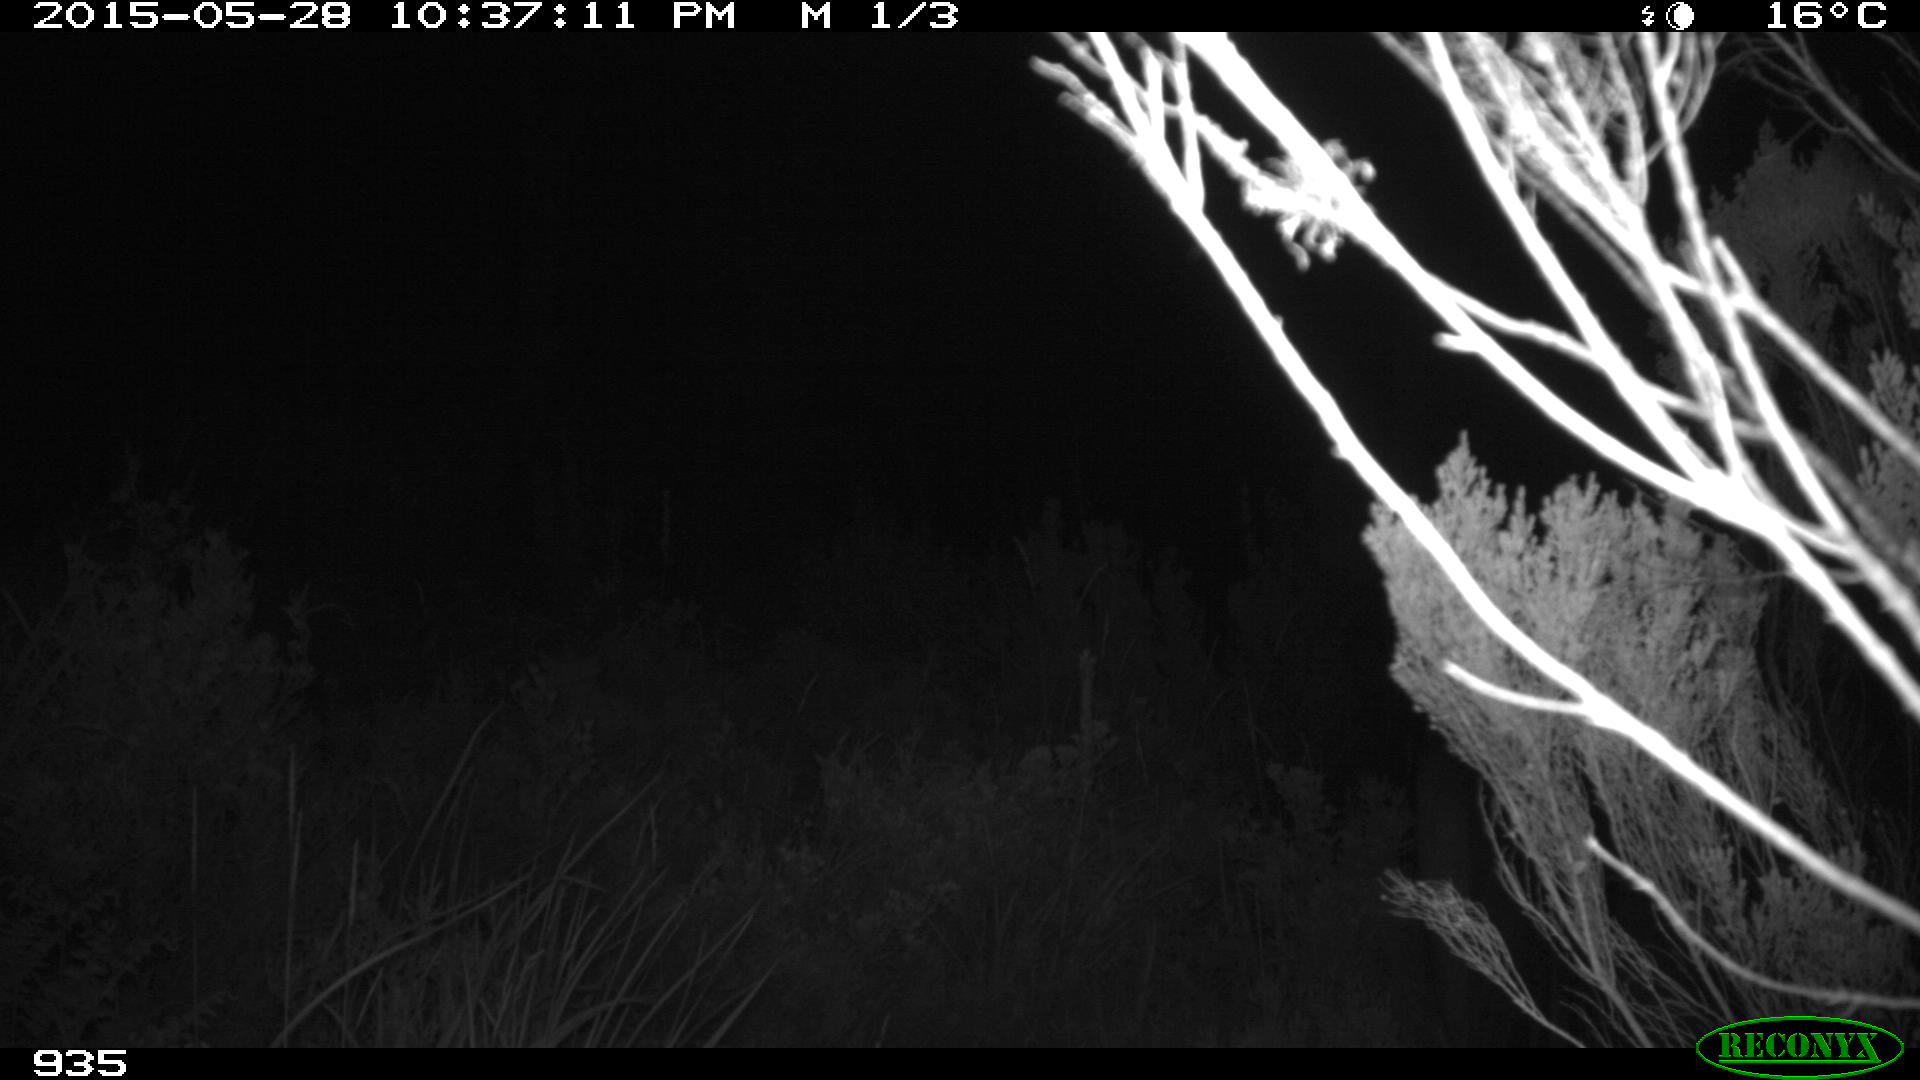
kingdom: Animalia
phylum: Chordata
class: Mammalia
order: Perissodactyla
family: Equidae
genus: Equus
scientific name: Equus caballus
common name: Horse
